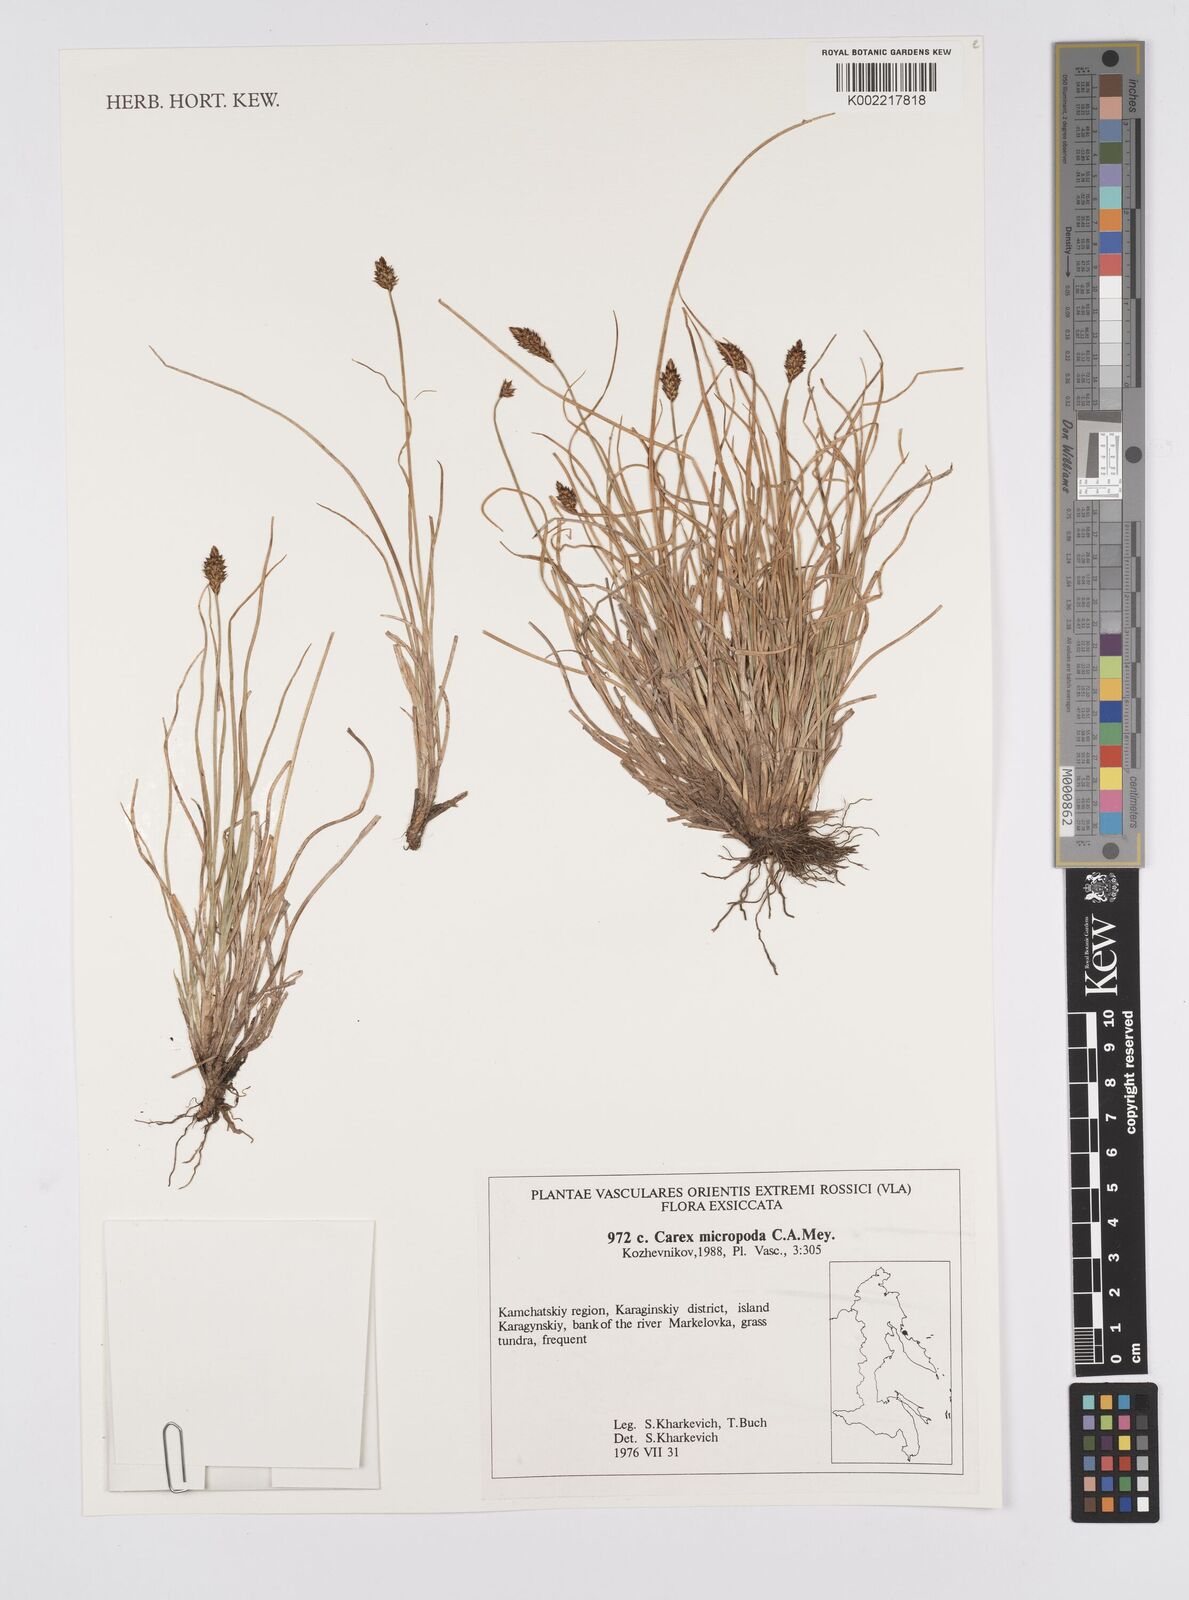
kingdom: Plantae
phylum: Tracheophyta
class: Liliopsida
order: Poales
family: Cyperaceae
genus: Carex
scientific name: Carex
